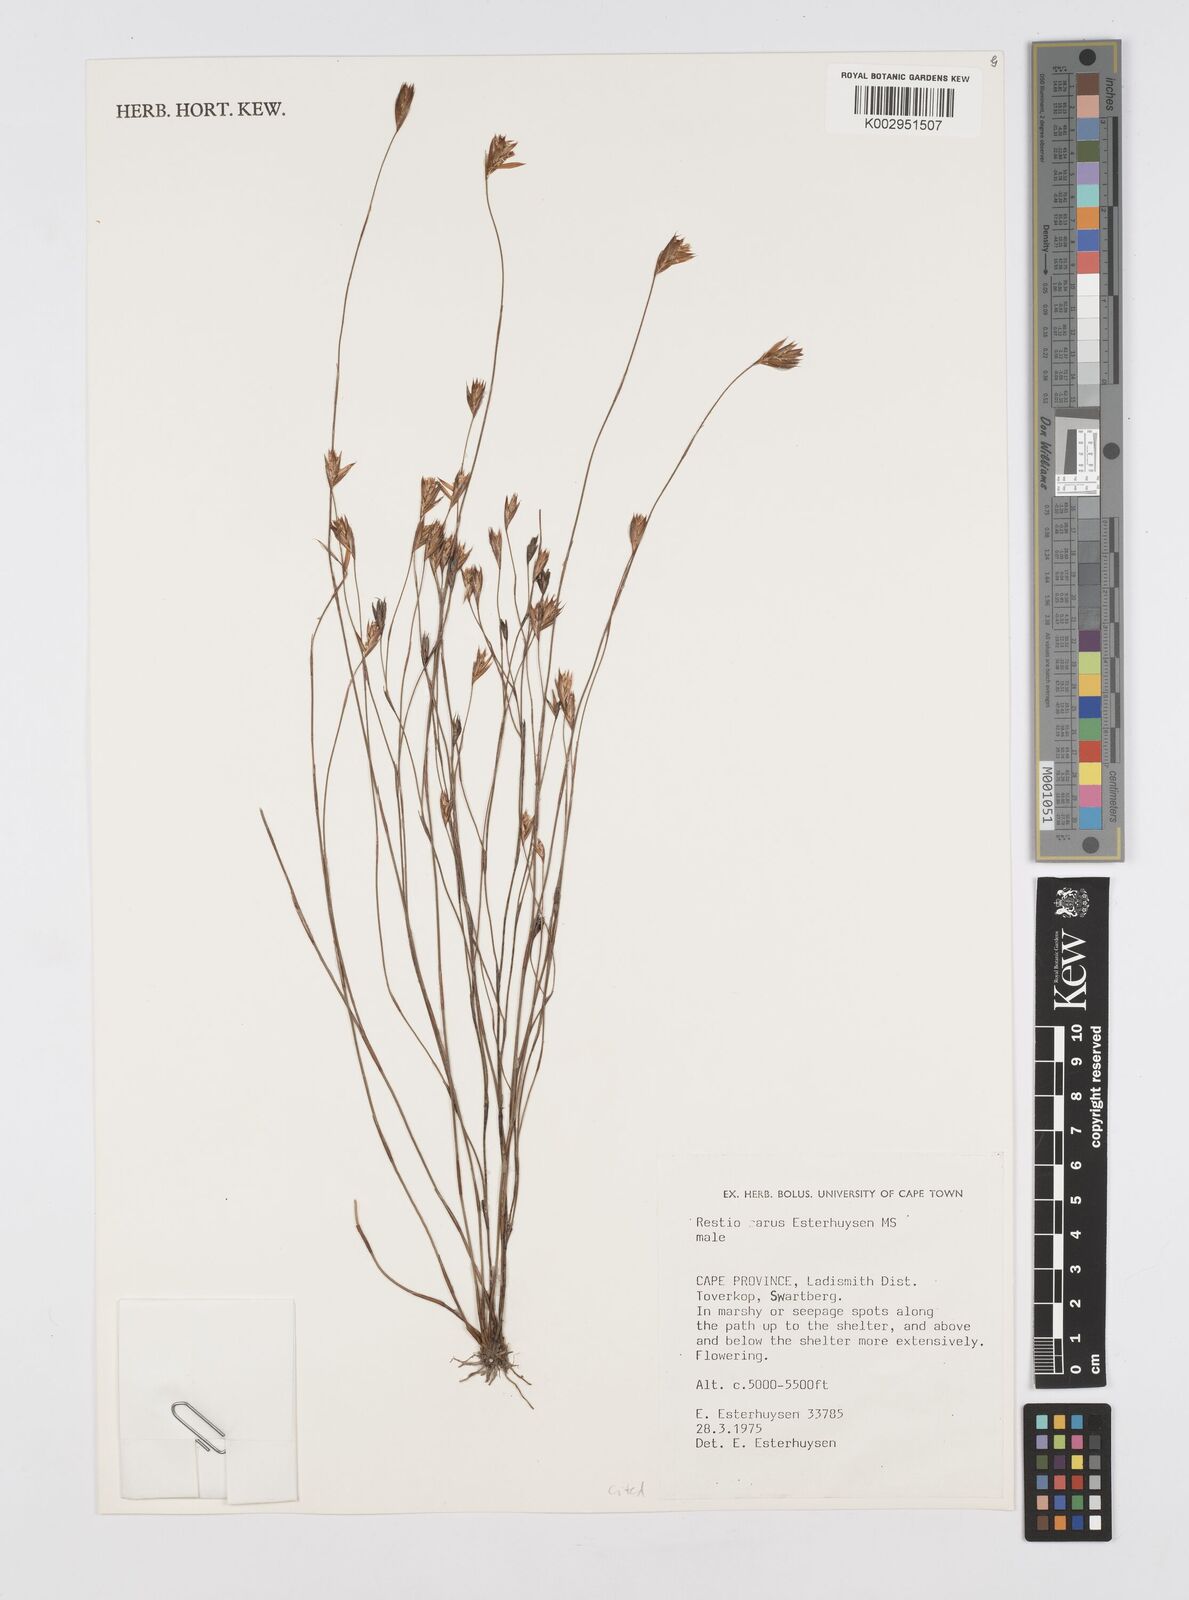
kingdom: Plantae
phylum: Tracheophyta
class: Liliopsida
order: Poales
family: Restionaceae
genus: Restio
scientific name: Restio rarus
